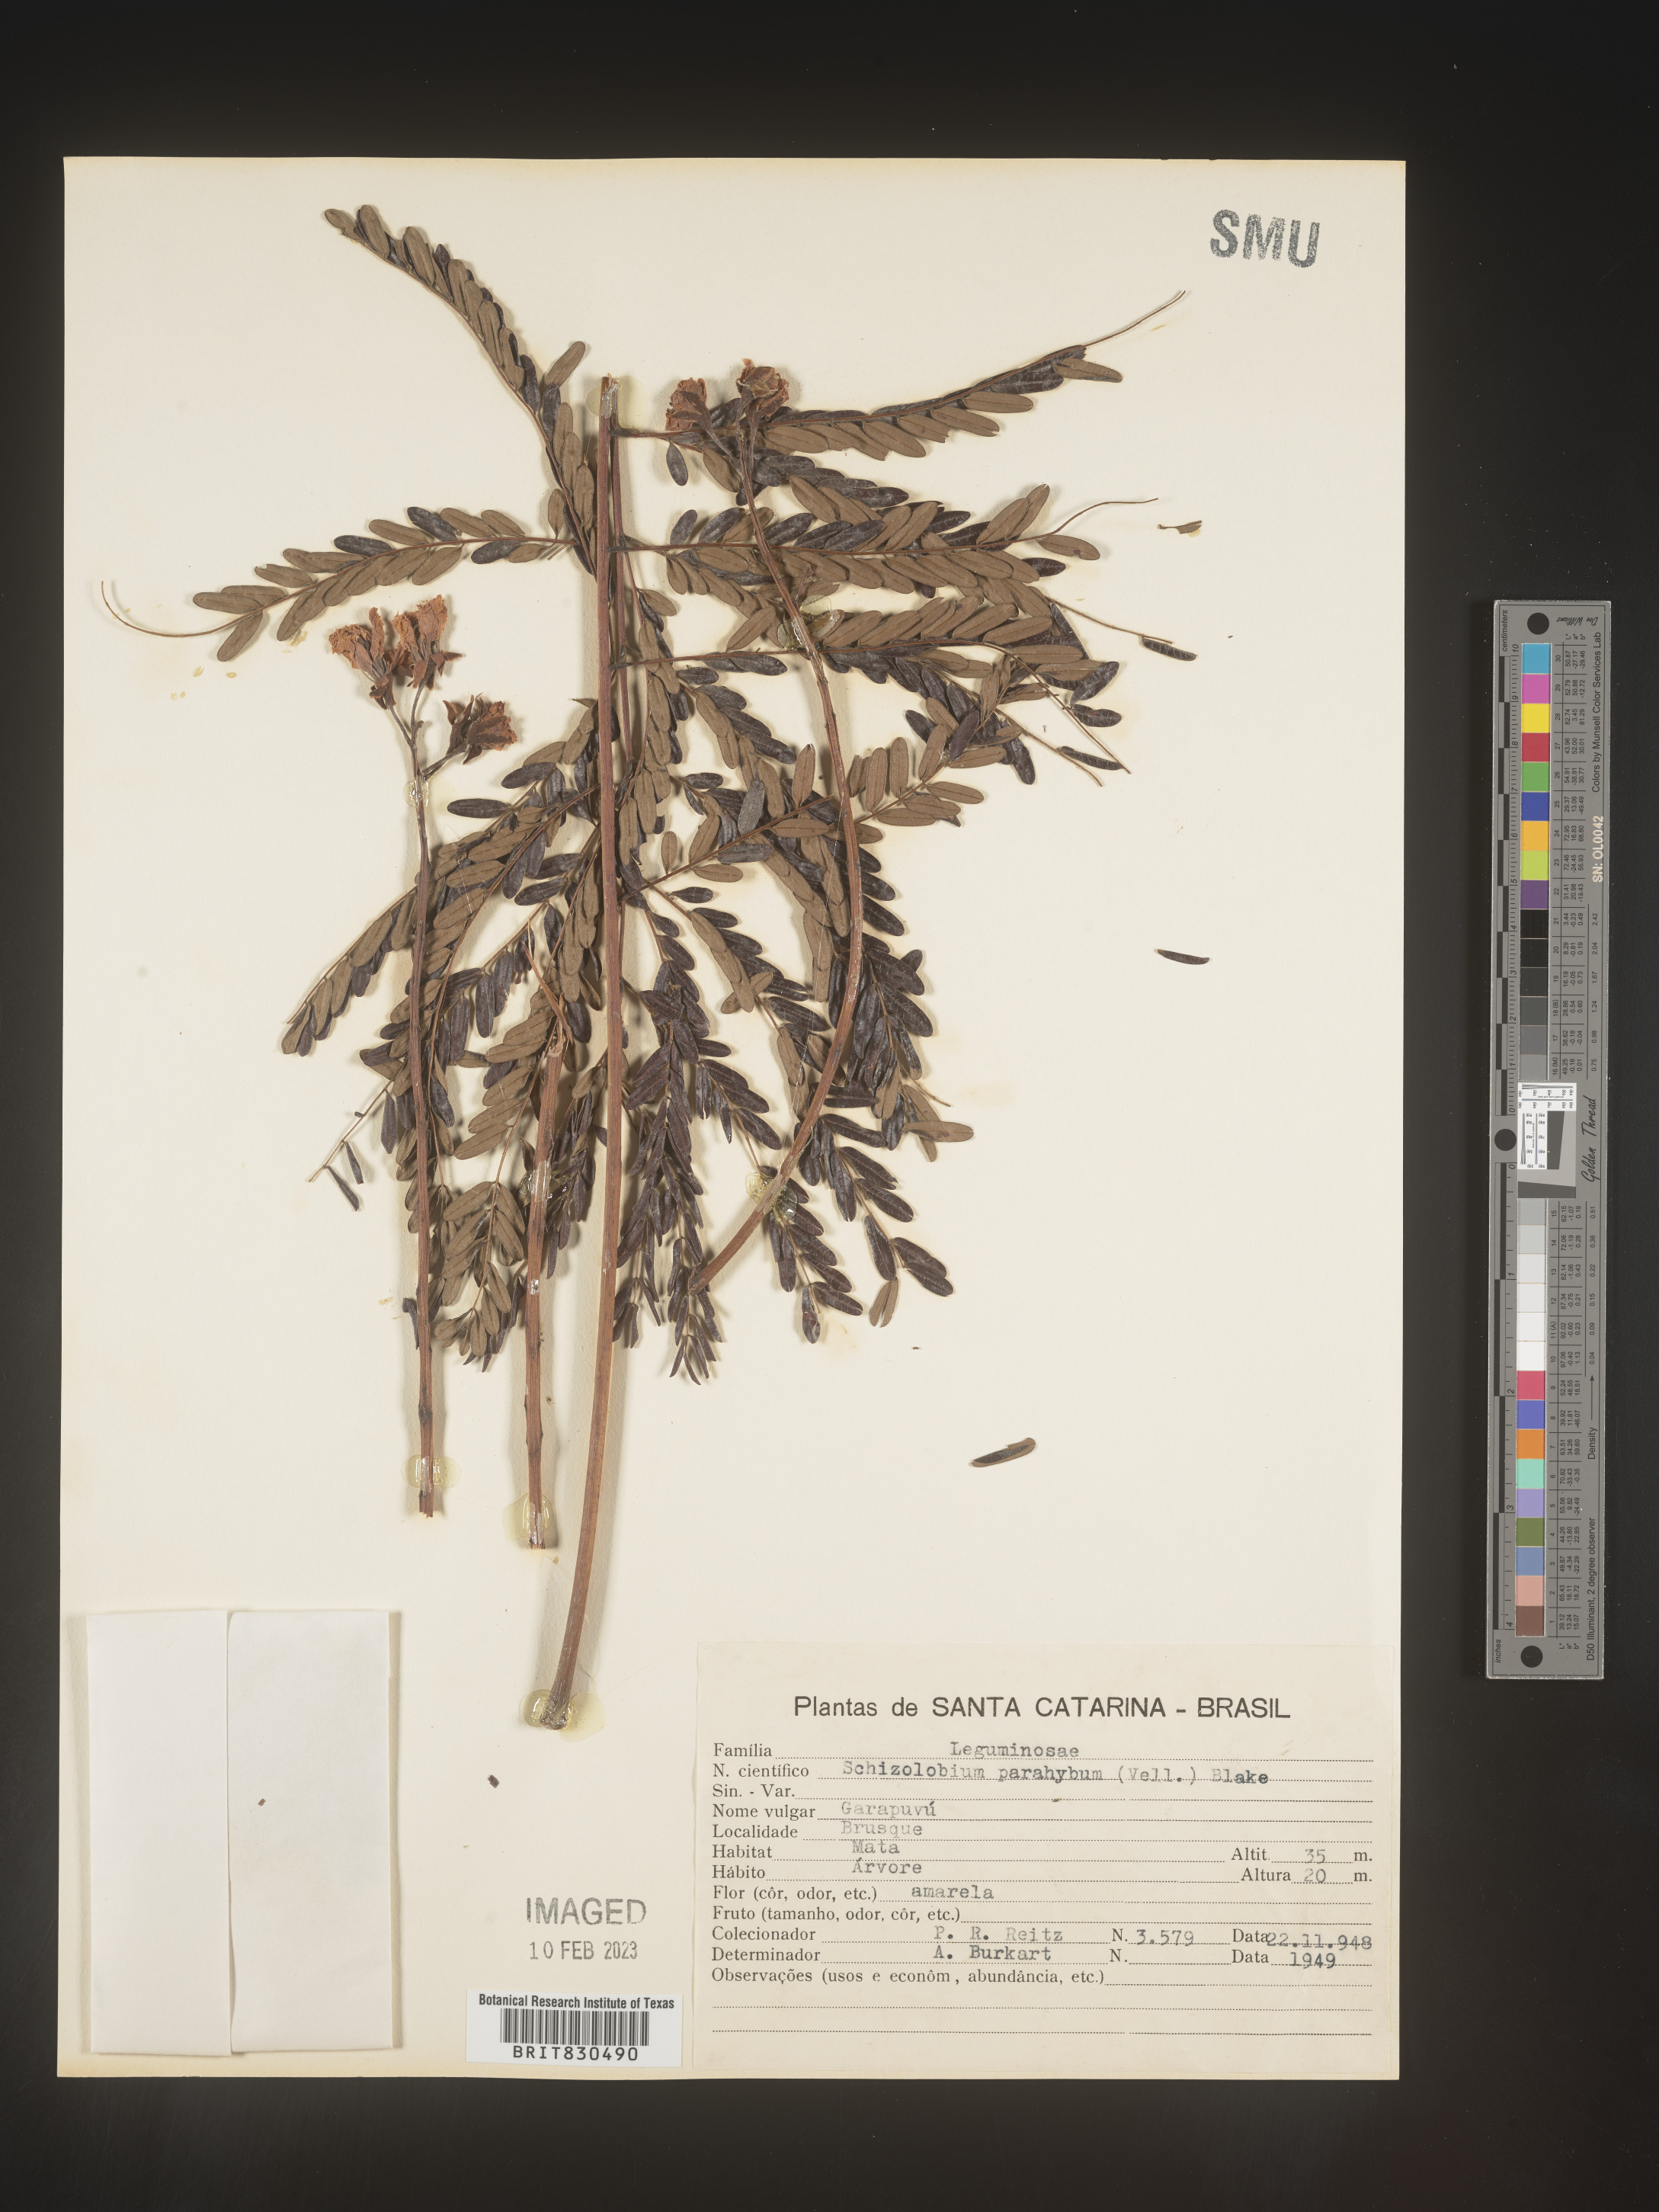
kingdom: Plantae
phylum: Tracheophyta
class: Magnoliopsida
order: Fabales
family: Fabaceae
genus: Schizolobium
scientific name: Schizolobium
